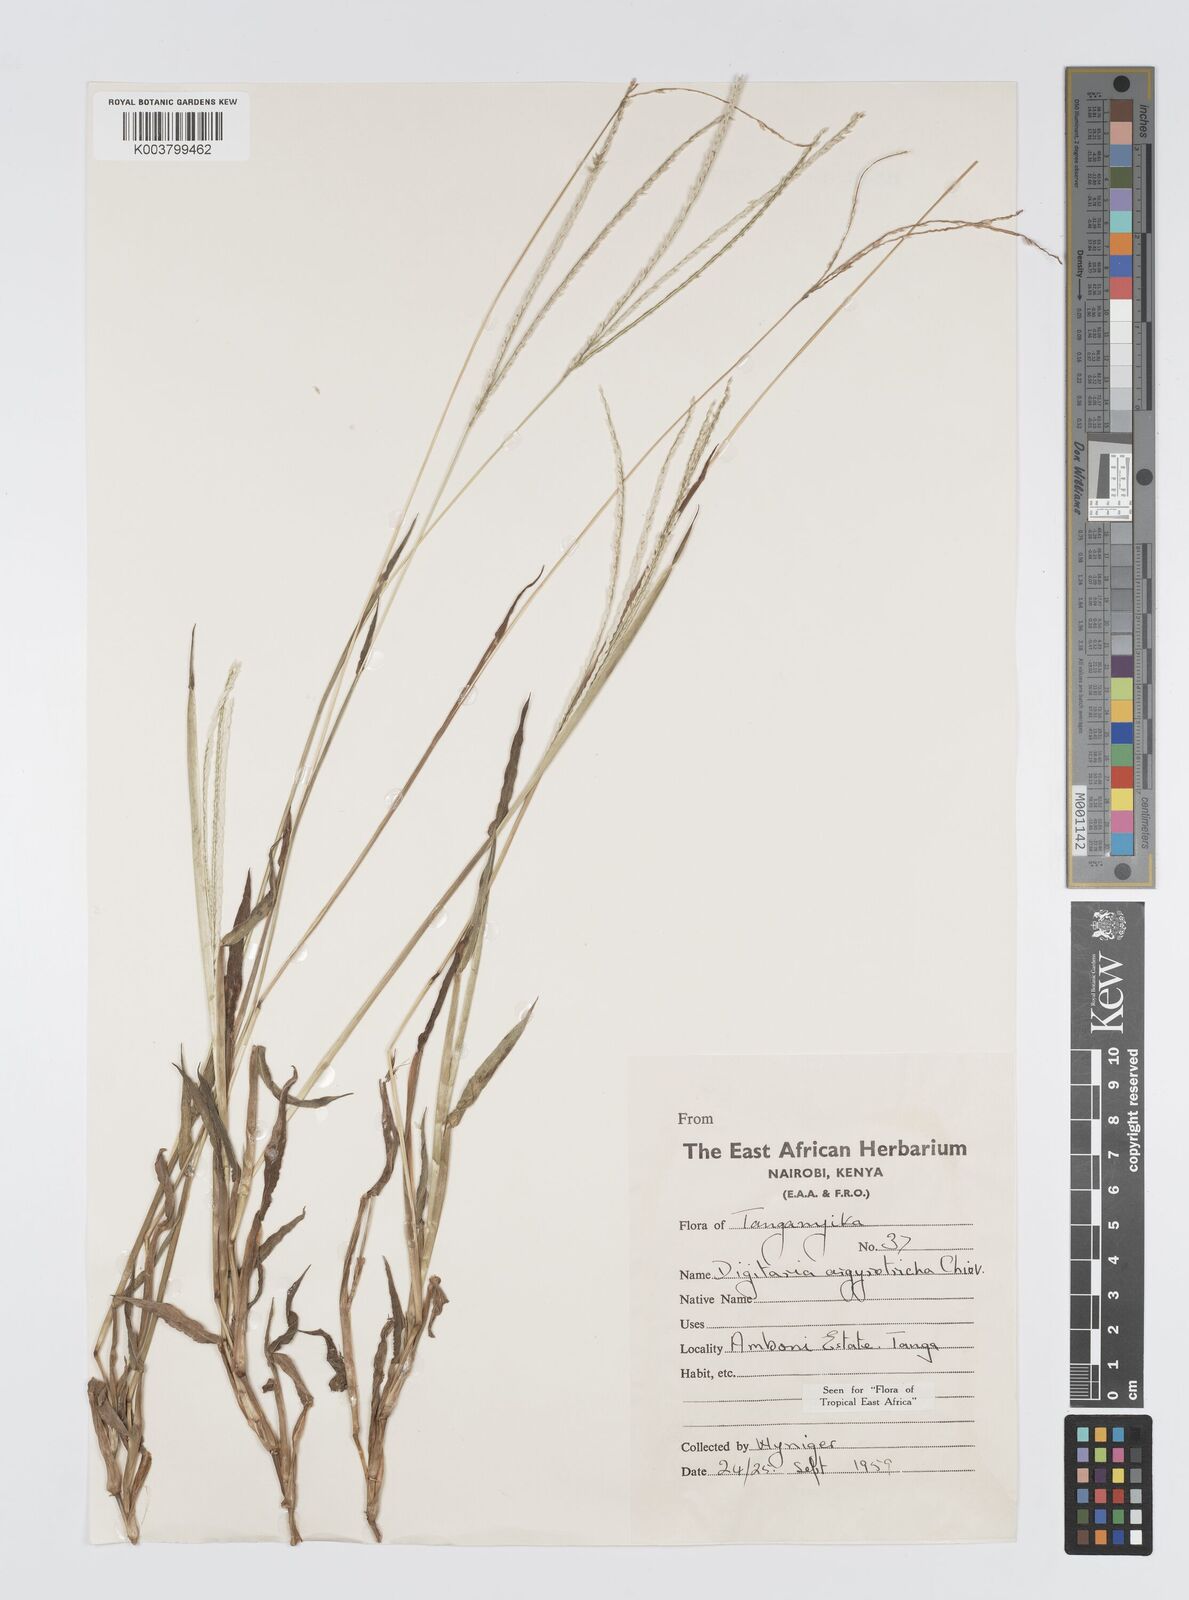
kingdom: Plantae
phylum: Tracheophyta
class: Liliopsida
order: Poales
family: Poaceae
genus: Digitaria
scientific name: Digitaria argyrotricha
